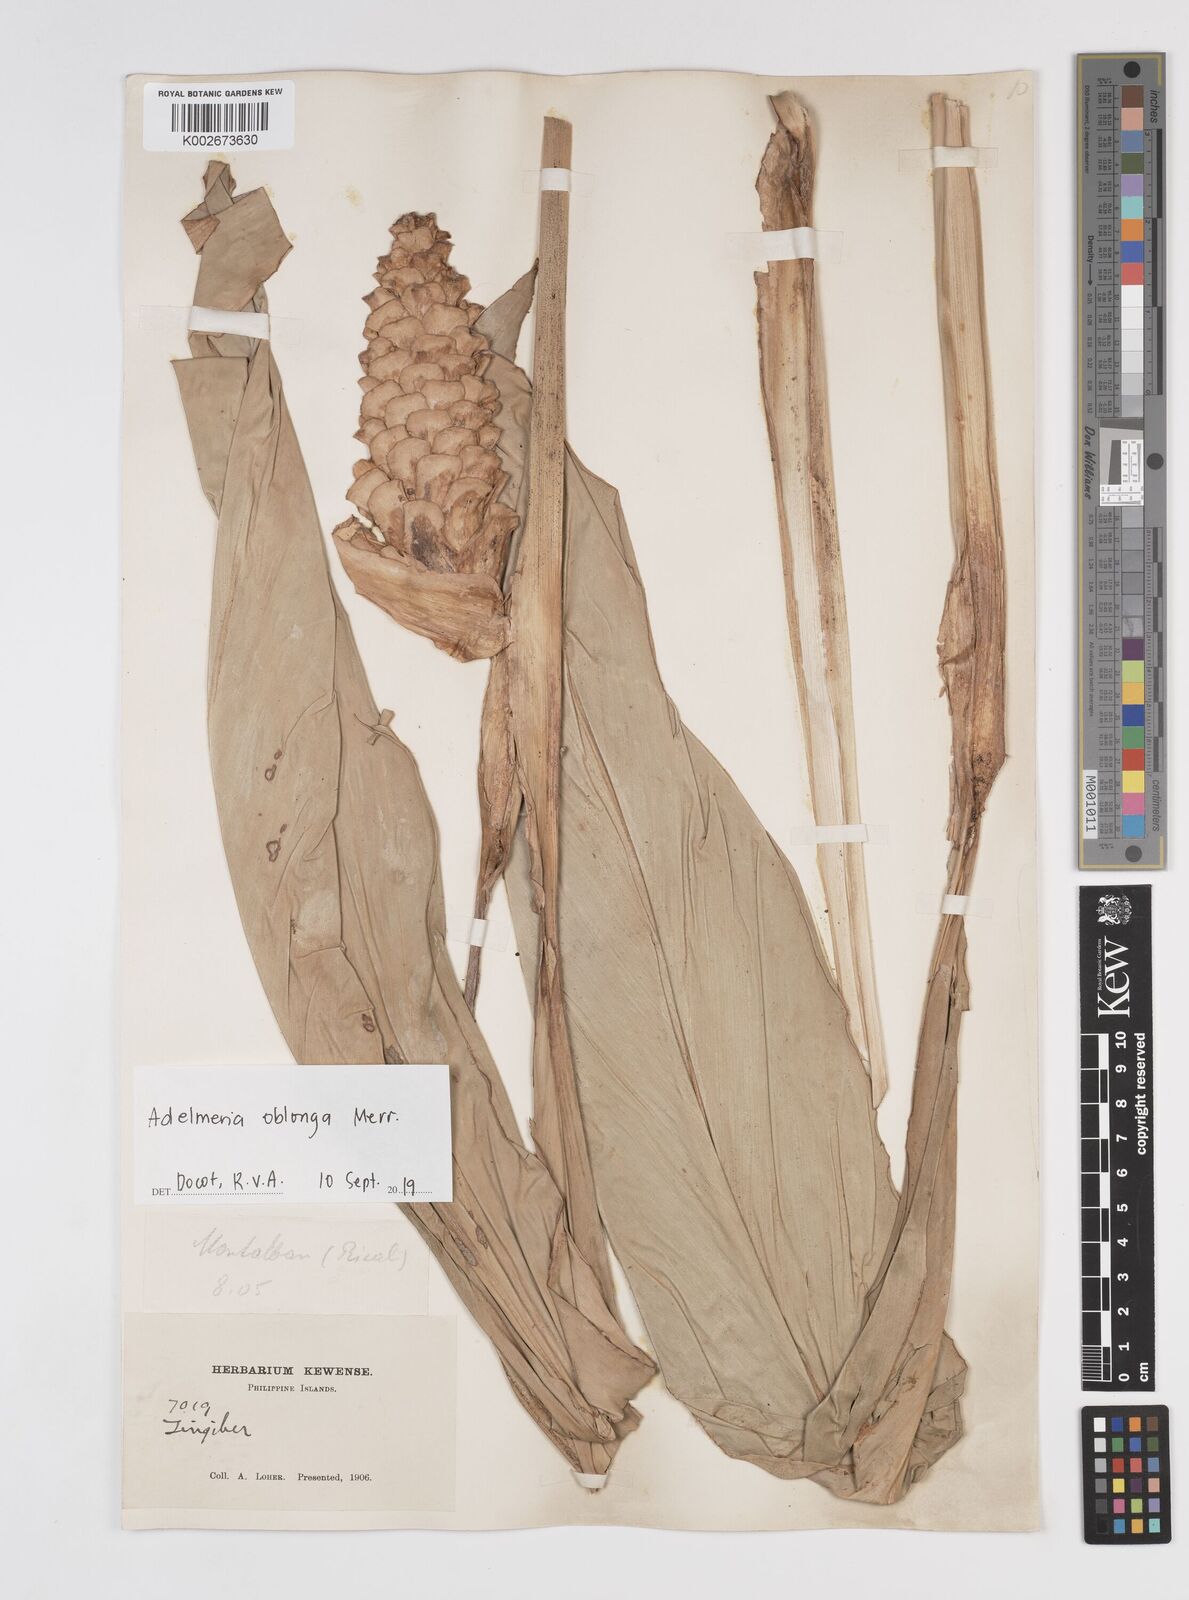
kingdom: Plantae
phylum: Tracheophyta
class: Liliopsida
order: Zingiberales
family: Zingiberaceae
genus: Adelmeria
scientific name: Adelmeria oblonga
